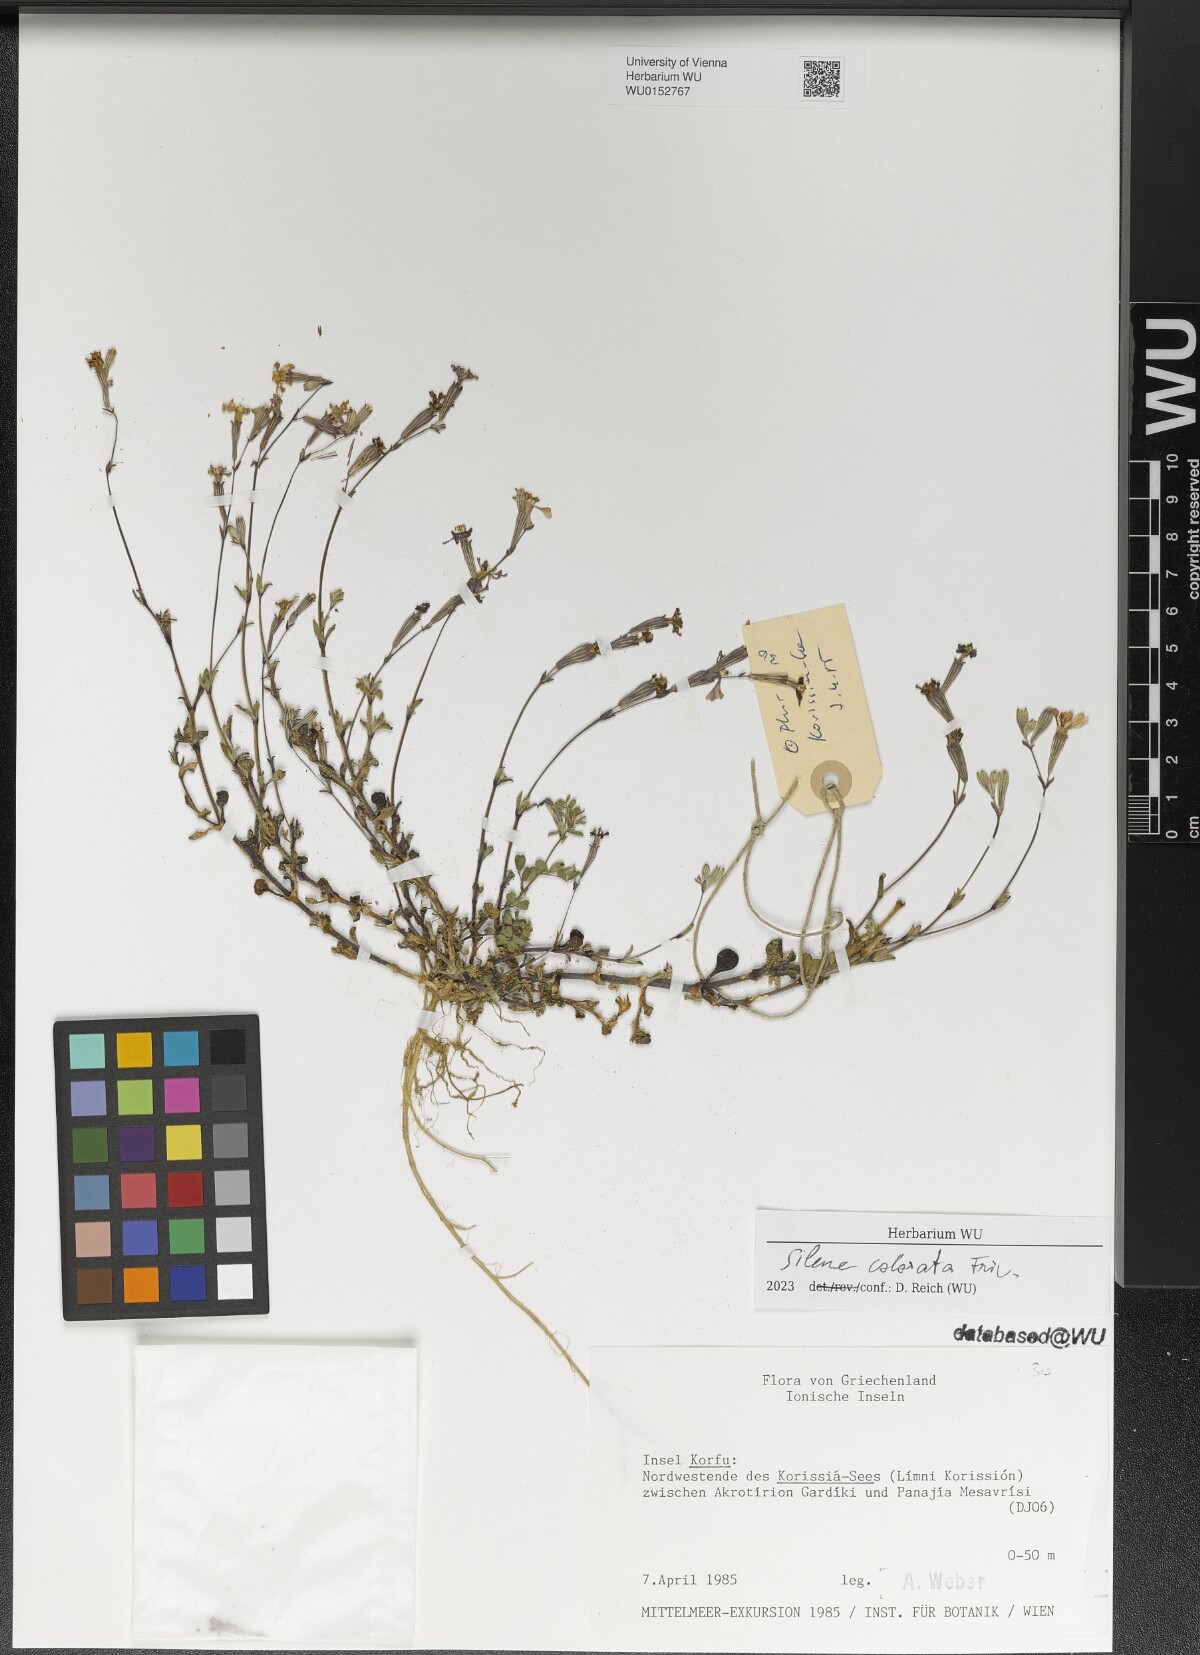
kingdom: Plantae
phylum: Tracheophyta
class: Magnoliopsida
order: Caryophyllales
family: Caryophyllaceae
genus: Silene
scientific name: Silene colorata
